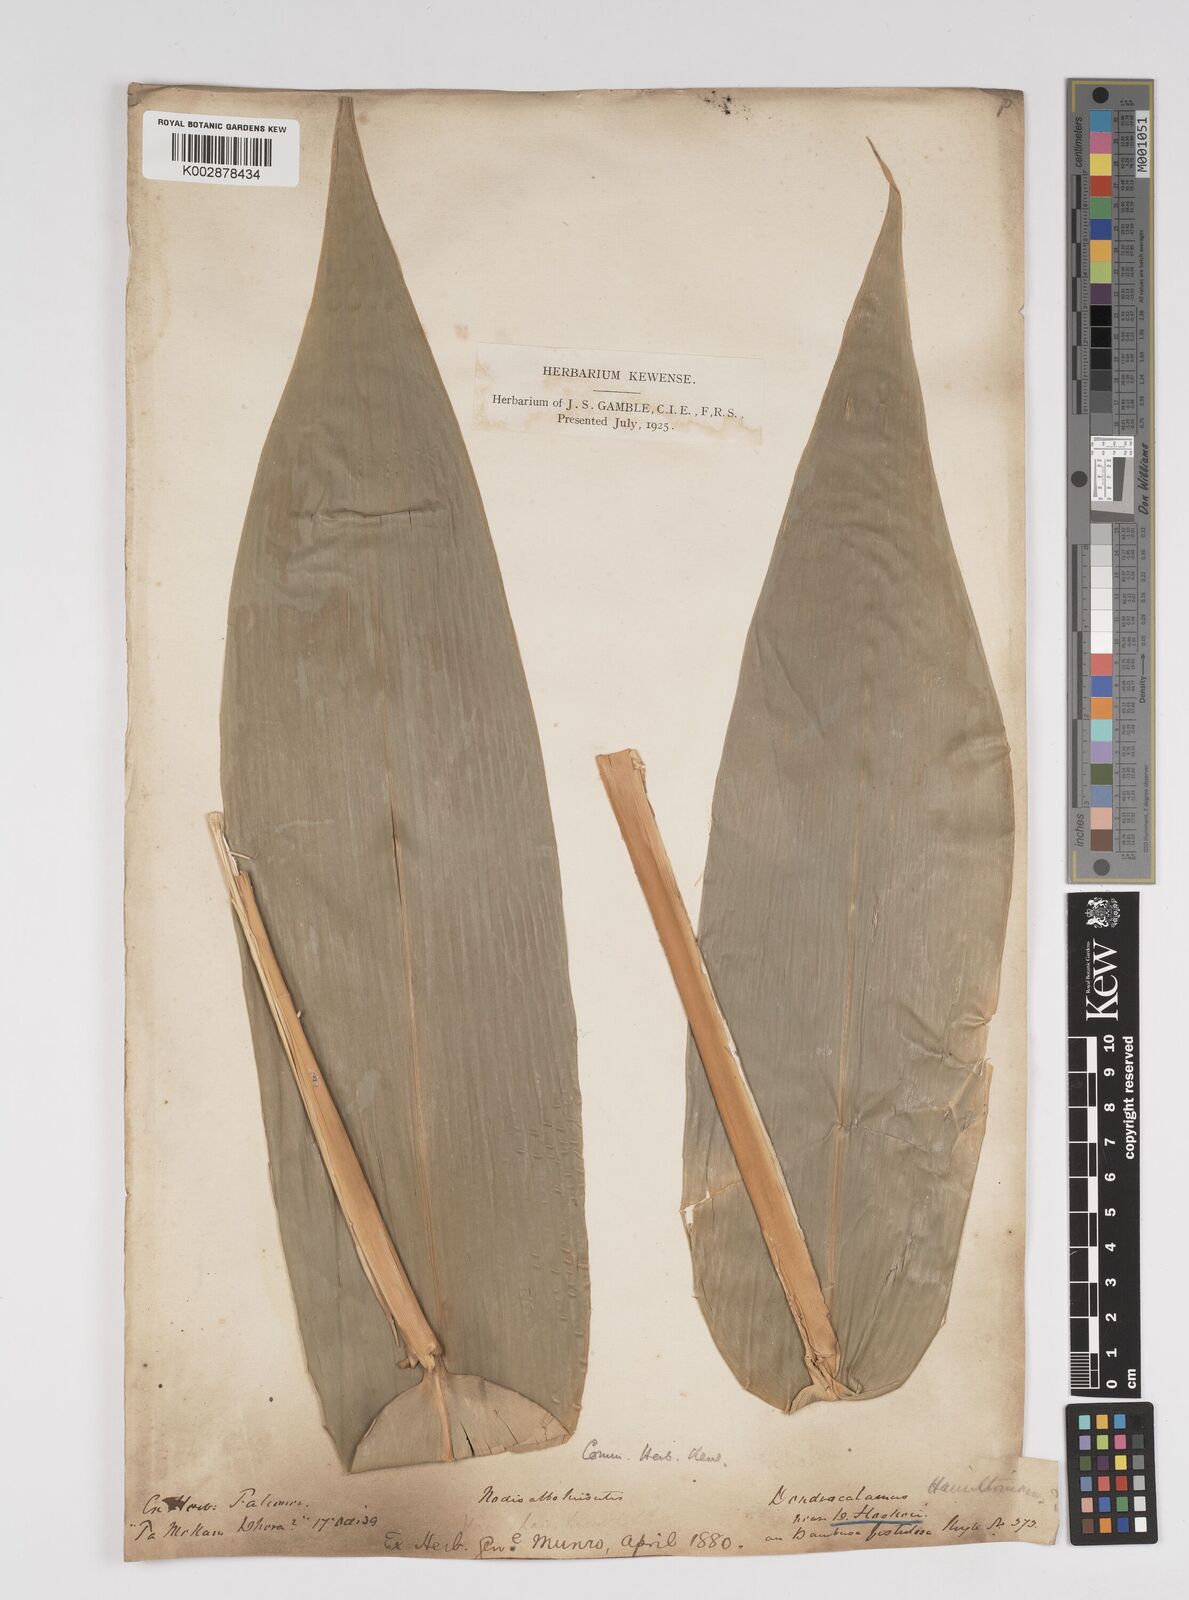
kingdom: Plantae
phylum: Tracheophyta
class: Liliopsida
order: Poales
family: Poaceae
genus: Dendrocalamus
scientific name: Dendrocalamus hookeri
